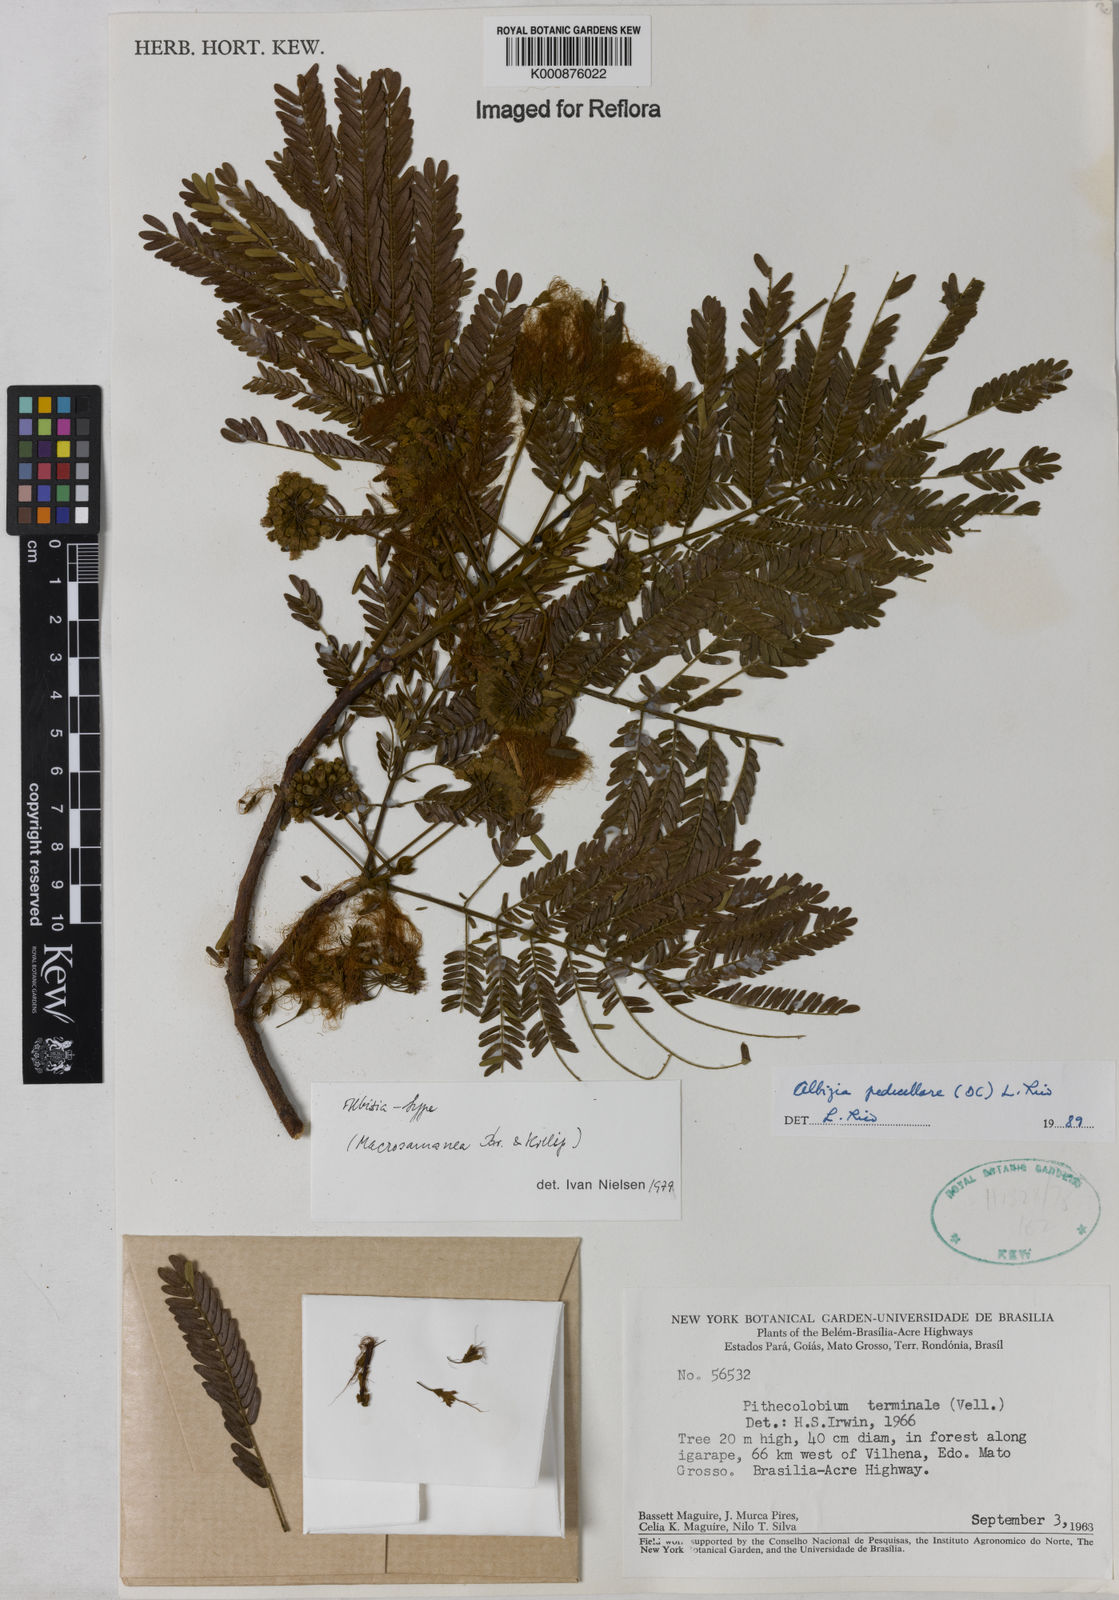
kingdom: Plantae
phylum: Tracheophyta
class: Magnoliopsida
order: Fabales
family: Fabaceae
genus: Balizia
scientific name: Balizia pedicellaris
